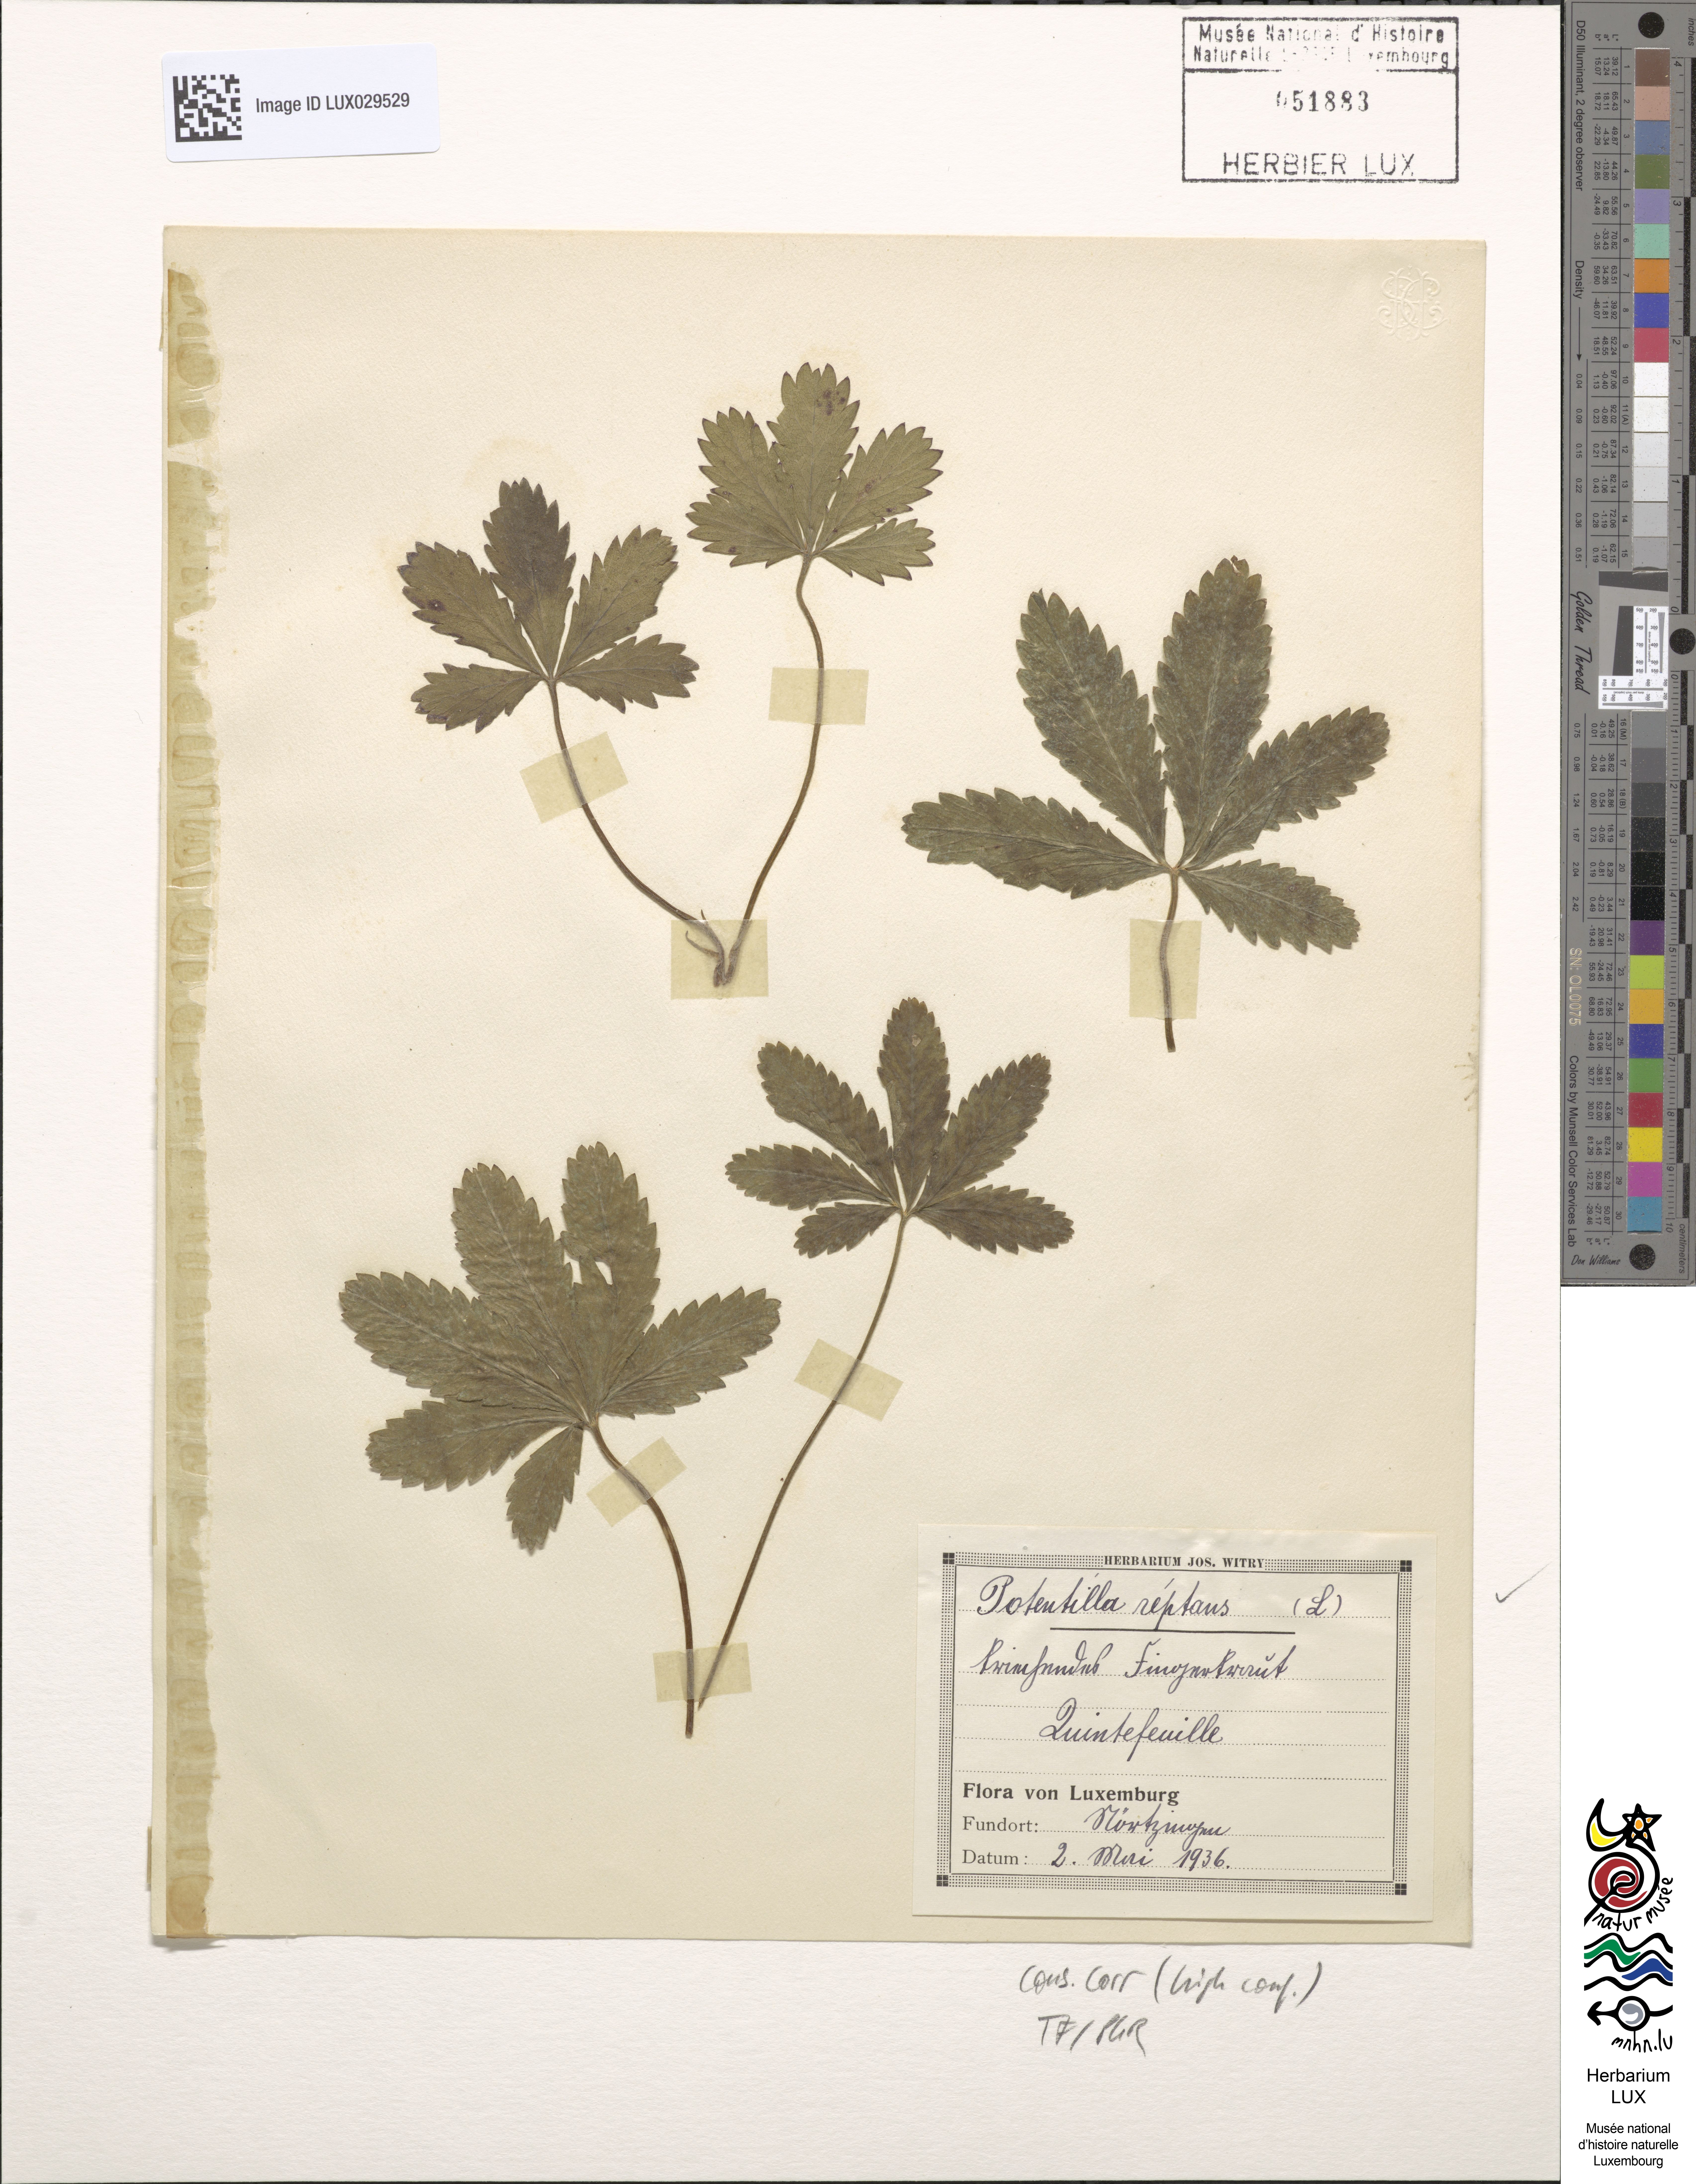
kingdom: Plantae
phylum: Tracheophyta
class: Magnoliopsida
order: Rosales
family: Rosaceae
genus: Potentilla
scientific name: Potentilla reptans
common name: Creeping cinquefoil
